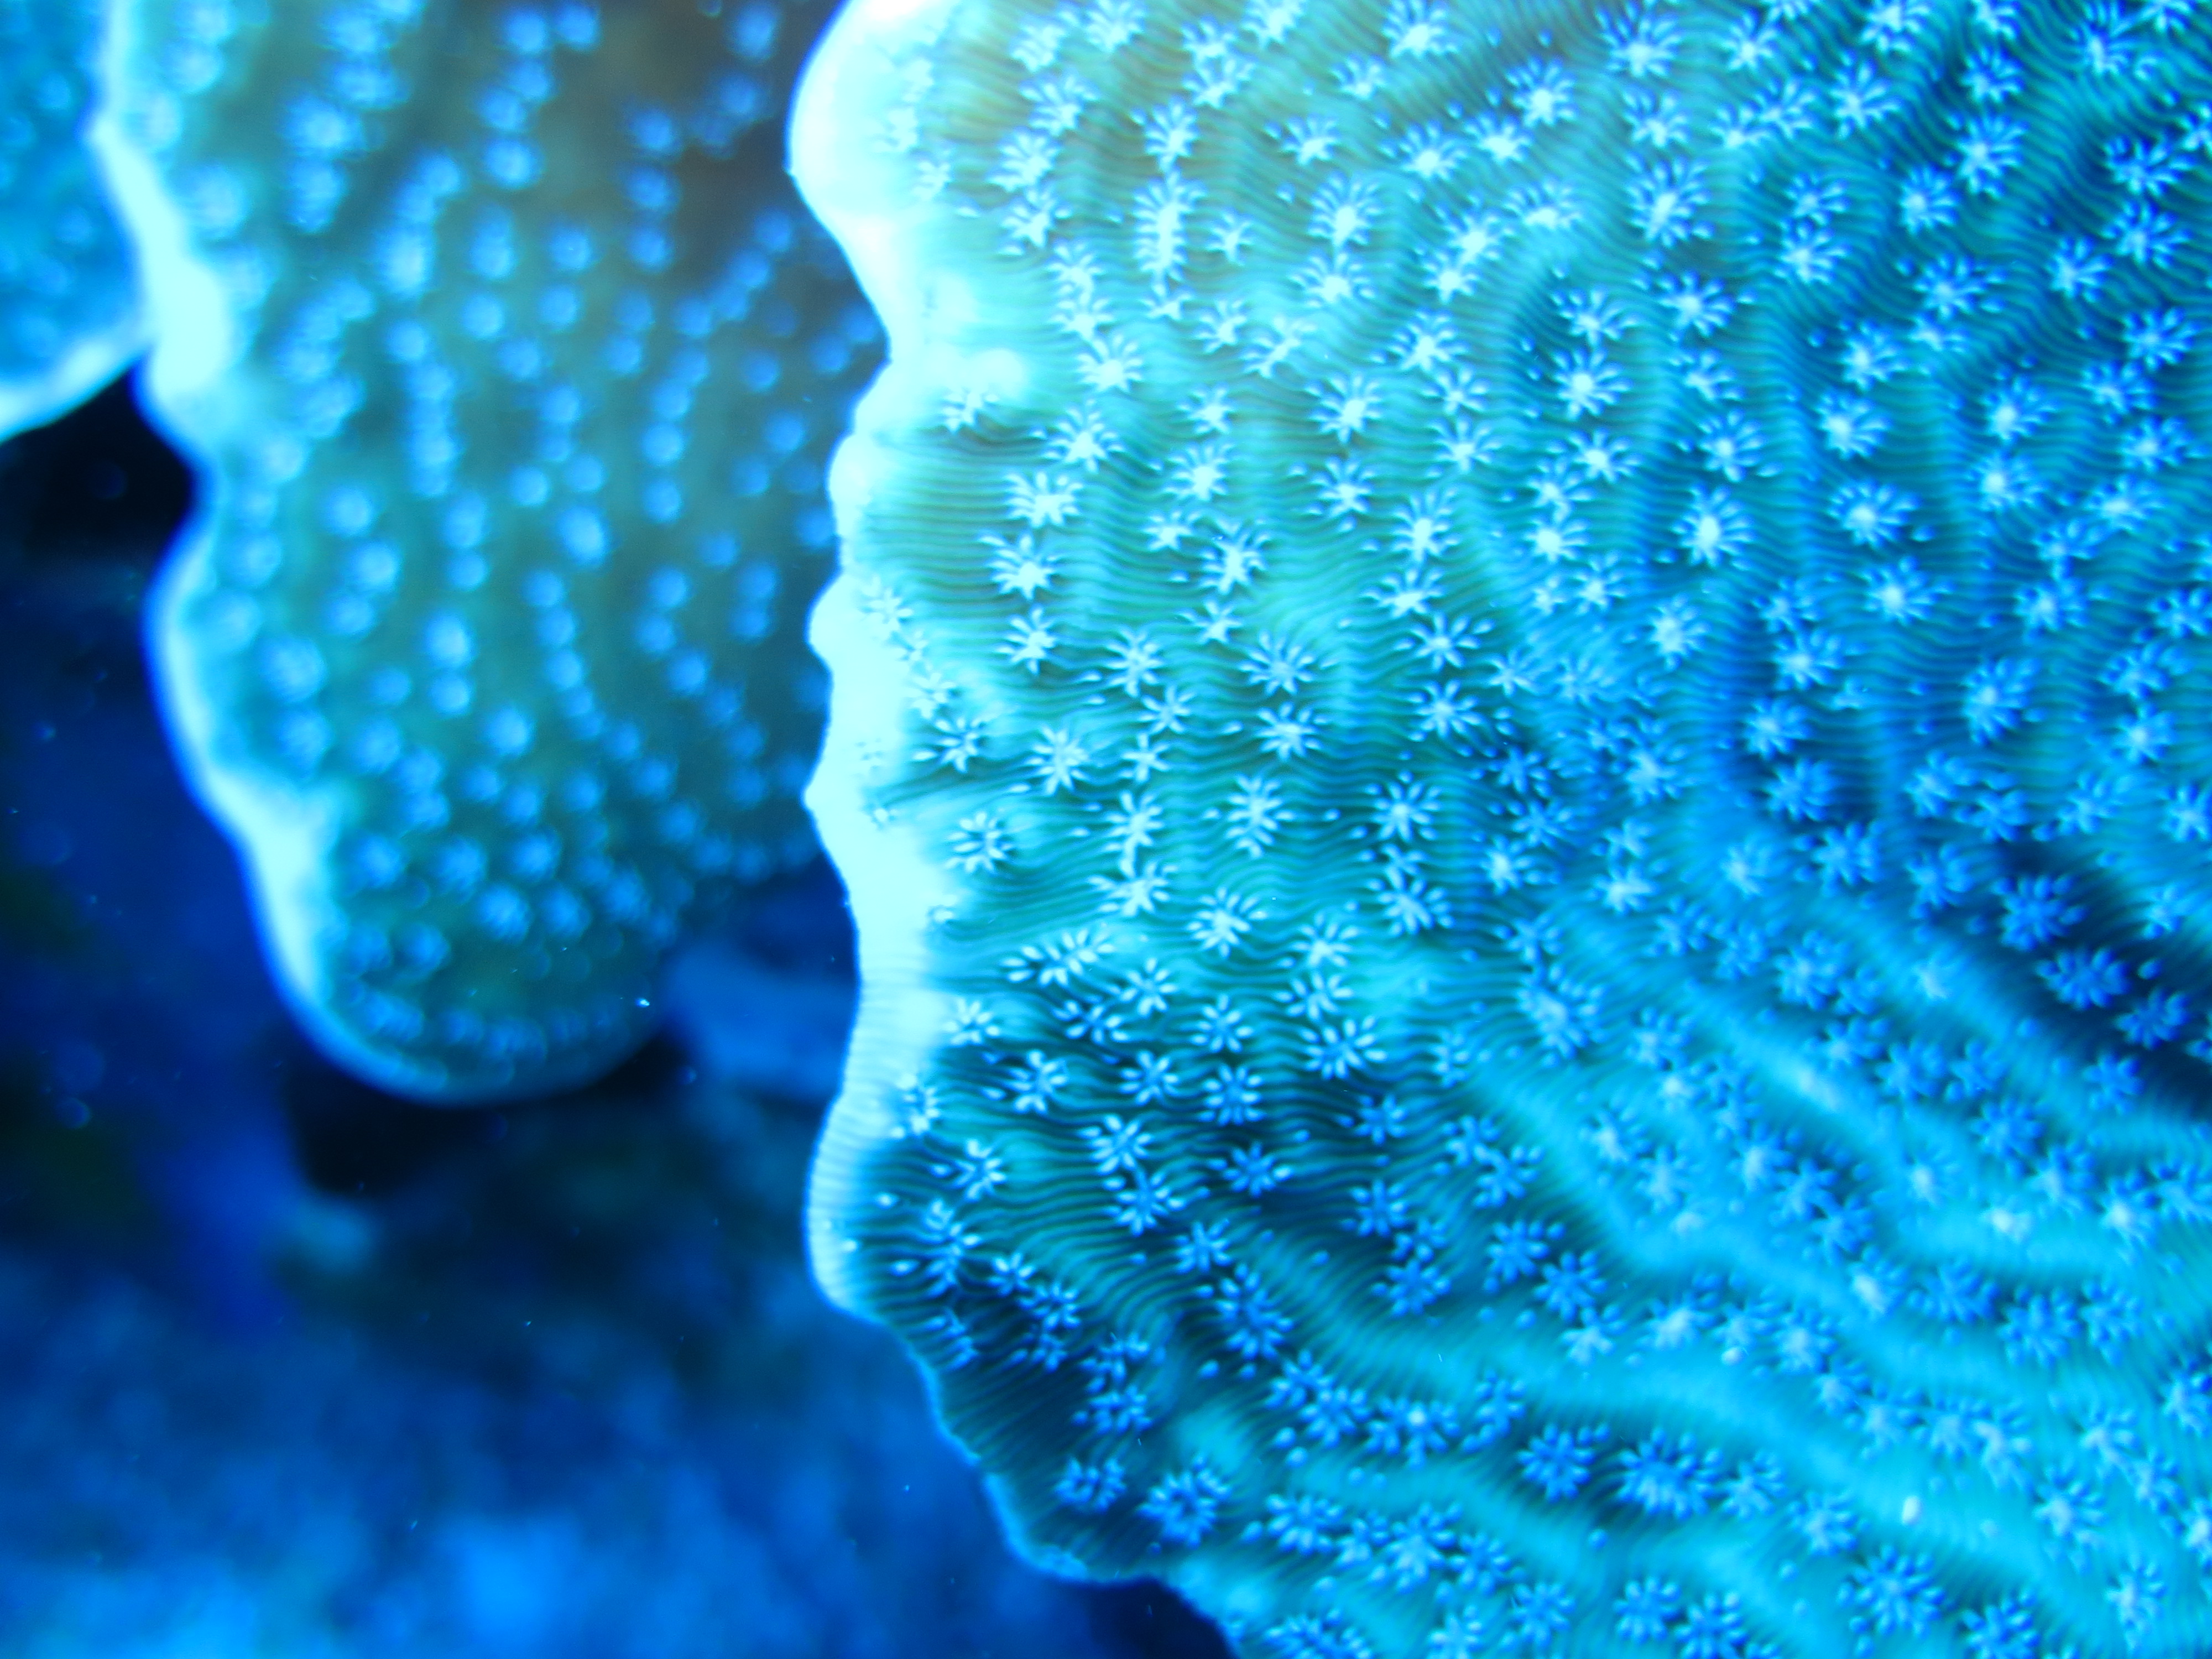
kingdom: Animalia
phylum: Cnidaria
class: Anthozoa
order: Scleractinia
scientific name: Scleractinia
